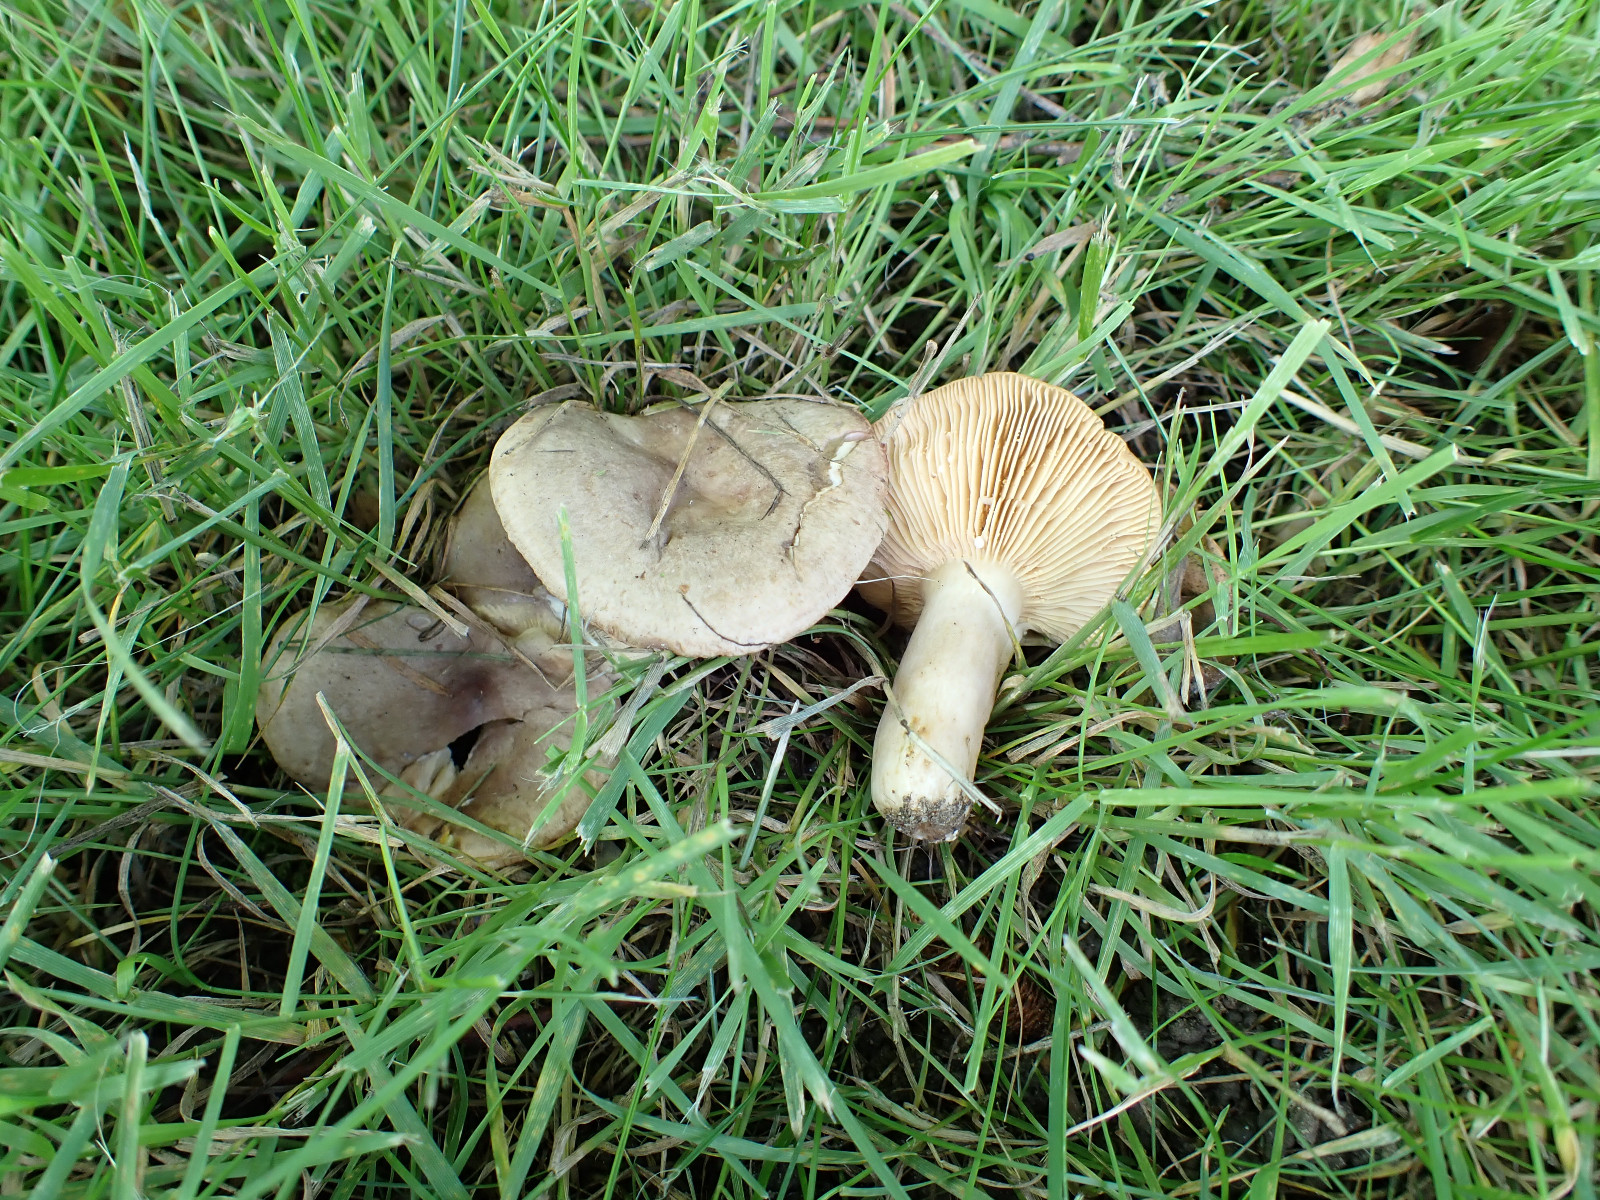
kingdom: Fungi
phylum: Basidiomycota
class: Agaricomycetes
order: Russulales
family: Russulaceae
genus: Lactarius
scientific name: Lactarius circellatus
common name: avnbøg-mælkehat
